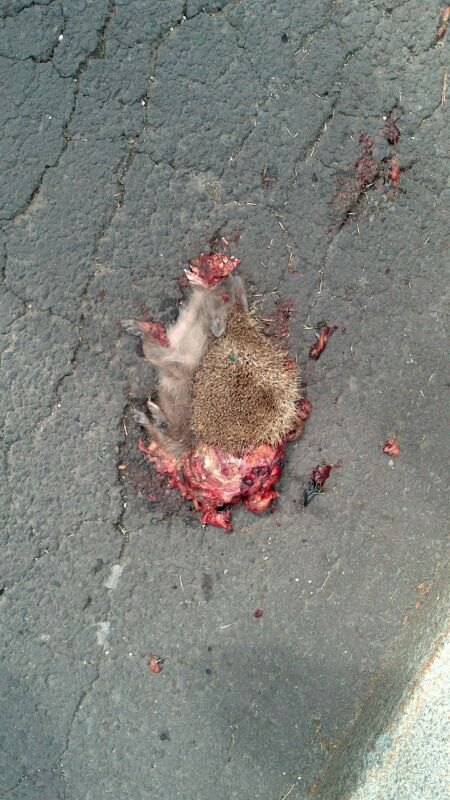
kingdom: Animalia
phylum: Chordata
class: Mammalia
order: Erinaceomorpha
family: Erinaceidae
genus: Erinaceus
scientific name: Erinaceus
